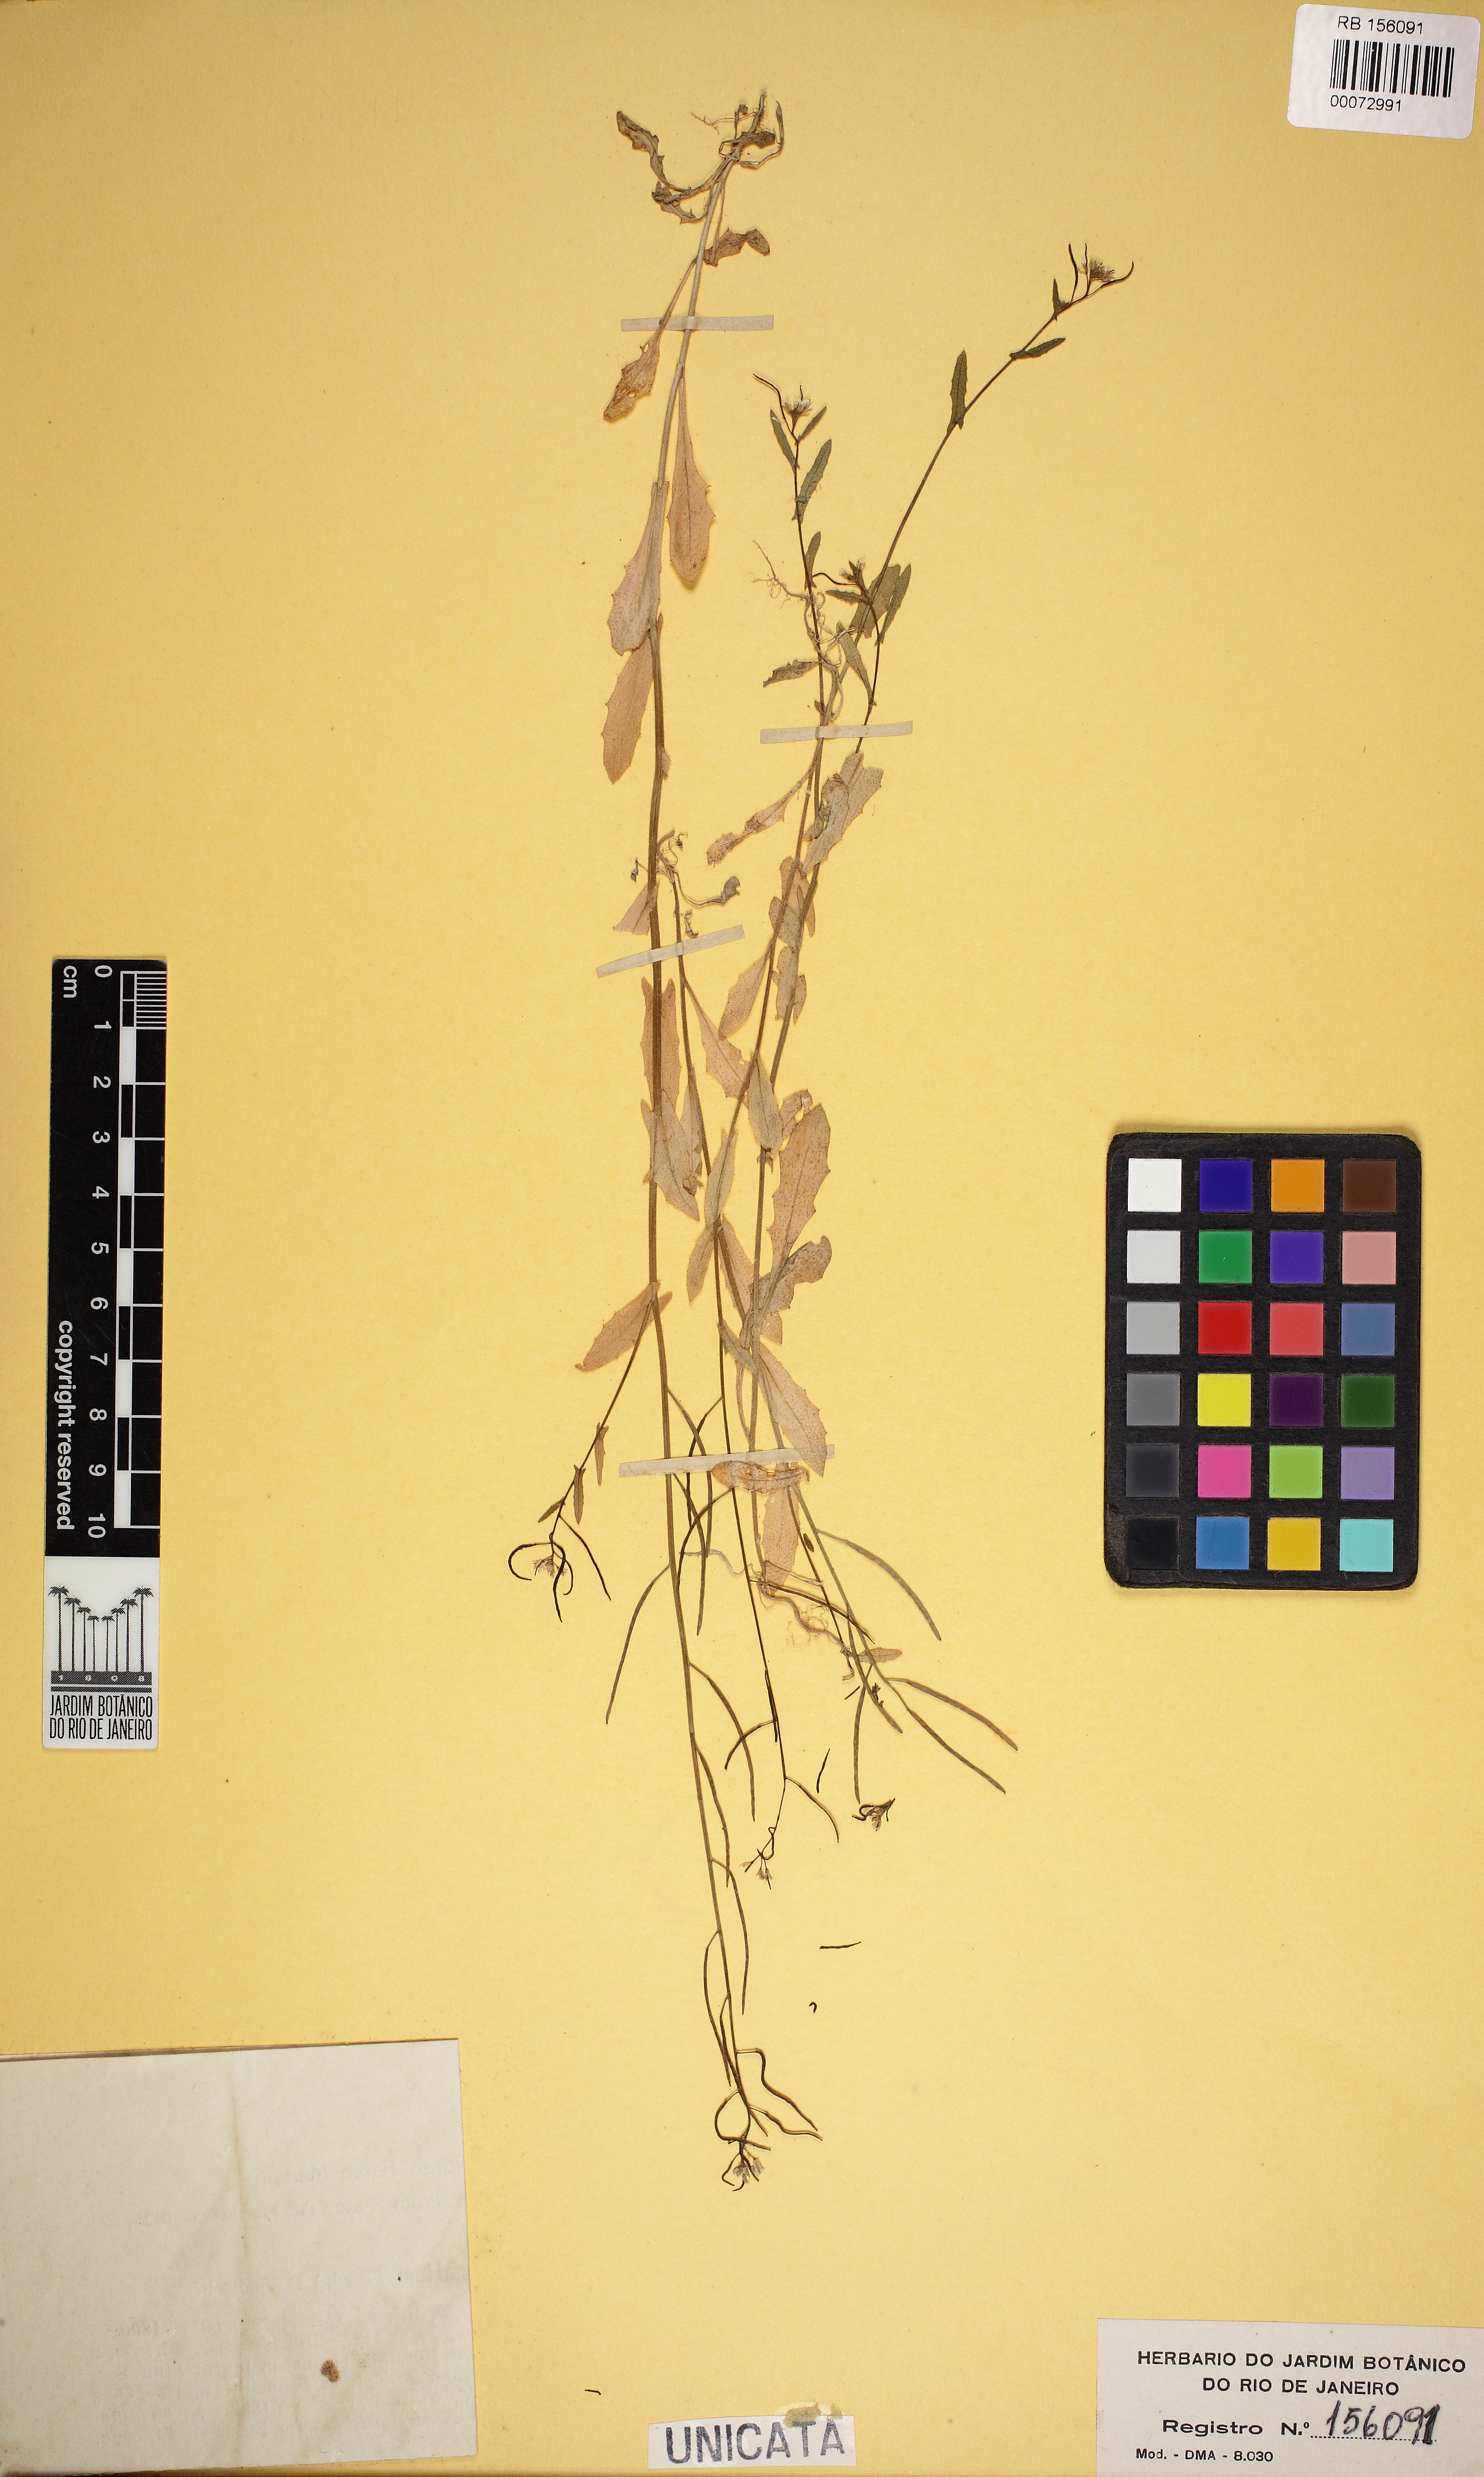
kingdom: Plantae
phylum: Tracheophyta
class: Magnoliopsida
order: Brassicales
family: Brassicaceae
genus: Sisymbrium
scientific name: Sisymbrium pumilum
